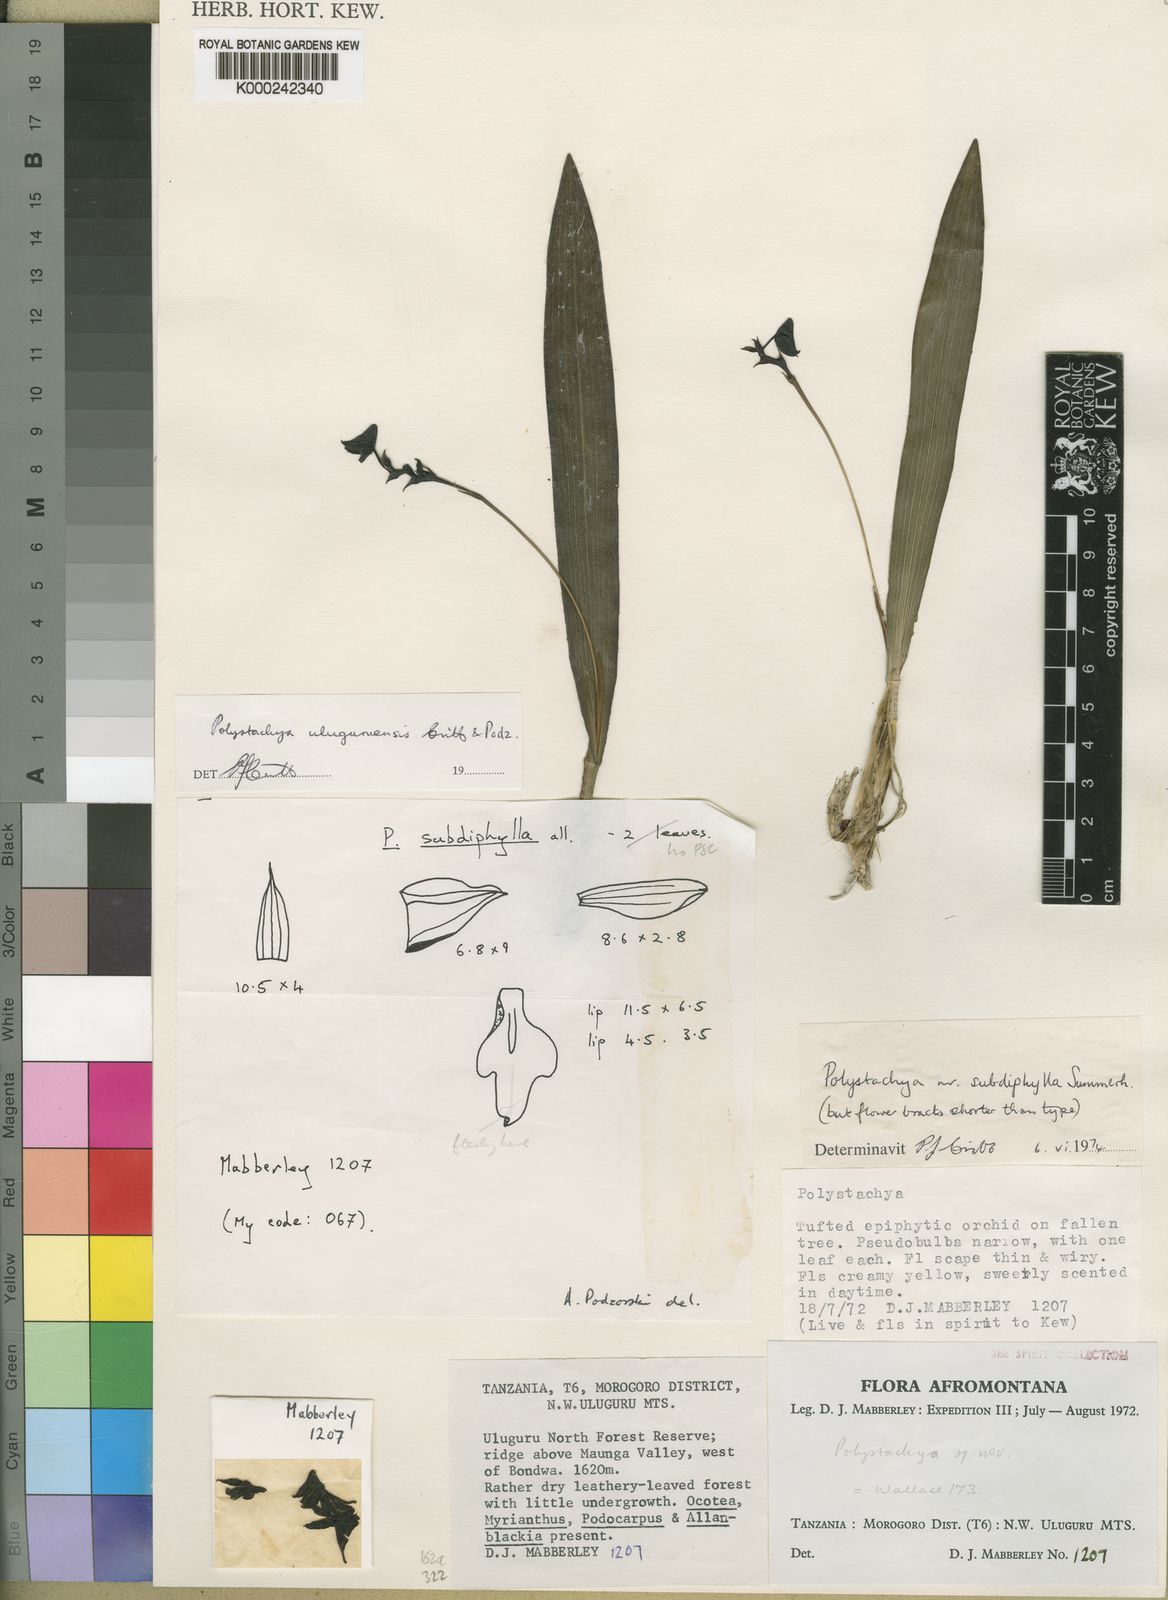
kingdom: Plantae
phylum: Tracheophyta
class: Liliopsida
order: Asparagales
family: Orchidaceae
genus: Polystachya
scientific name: Polystachya uluguruensis
